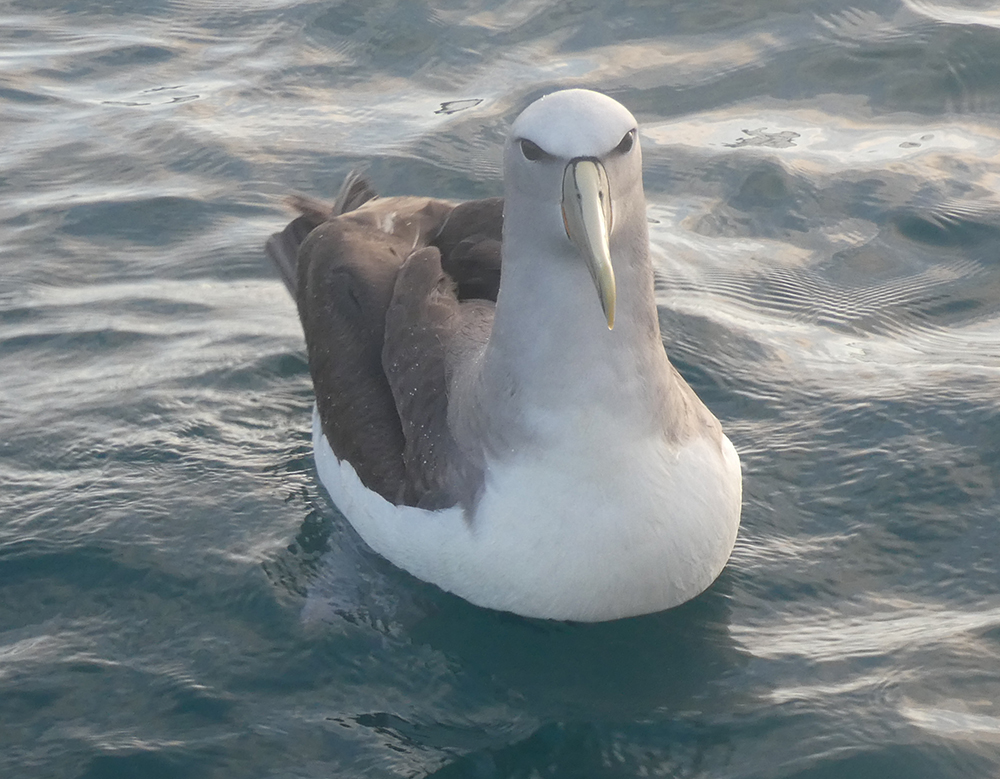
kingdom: Animalia
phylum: Chordata
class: Aves
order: Procellariiformes
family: Diomedeidae
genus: Thalassarche
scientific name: Thalassarche salvini
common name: Salvin's albatross
